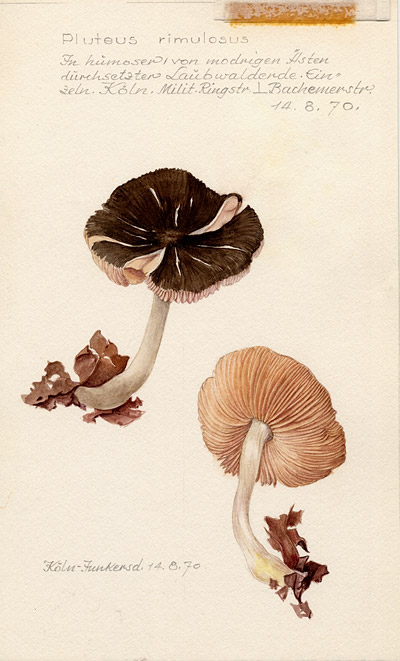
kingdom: Fungi
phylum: Basidiomycota
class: Agaricomycetes
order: Agaricales
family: Pluteaceae
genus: Pluteus
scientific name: Pluteus diettrichii
